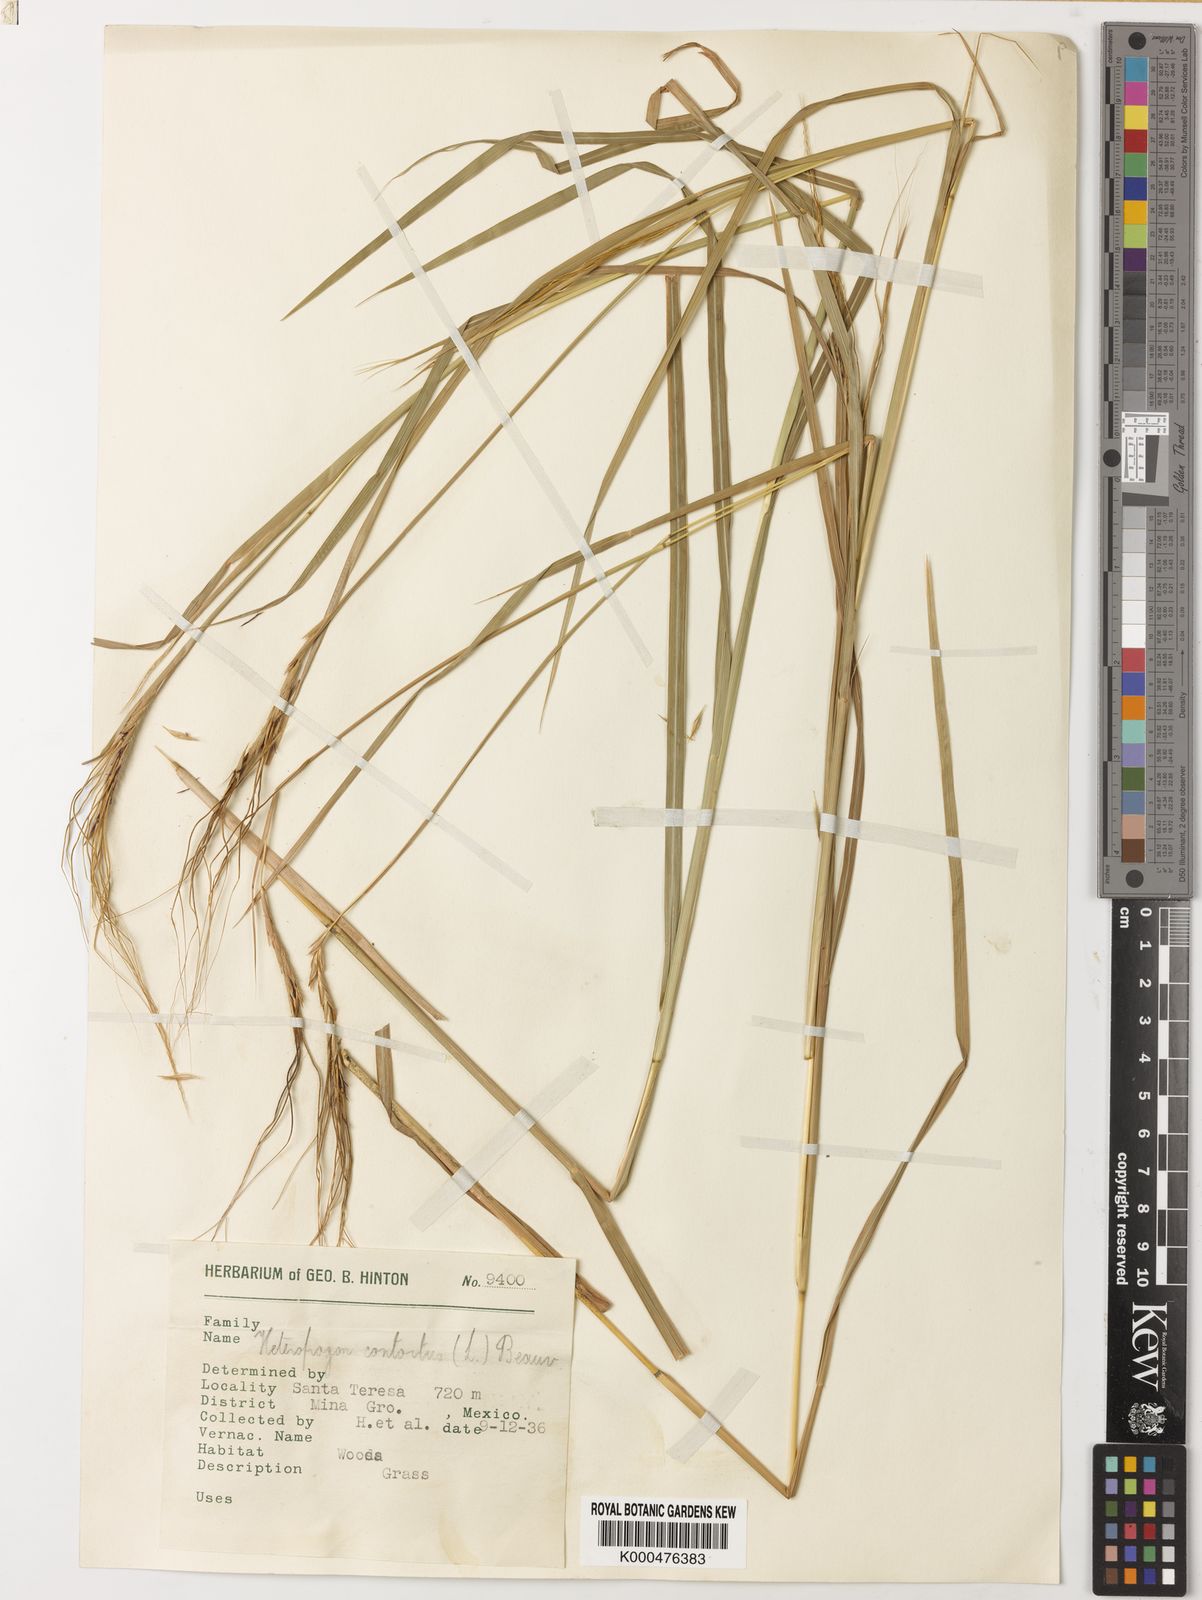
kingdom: Plantae
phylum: Tracheophyta
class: Liliopsida
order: Poales
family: Poaceae
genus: Heteropogon
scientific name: Heteropogon contortus
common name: Tanglehead
